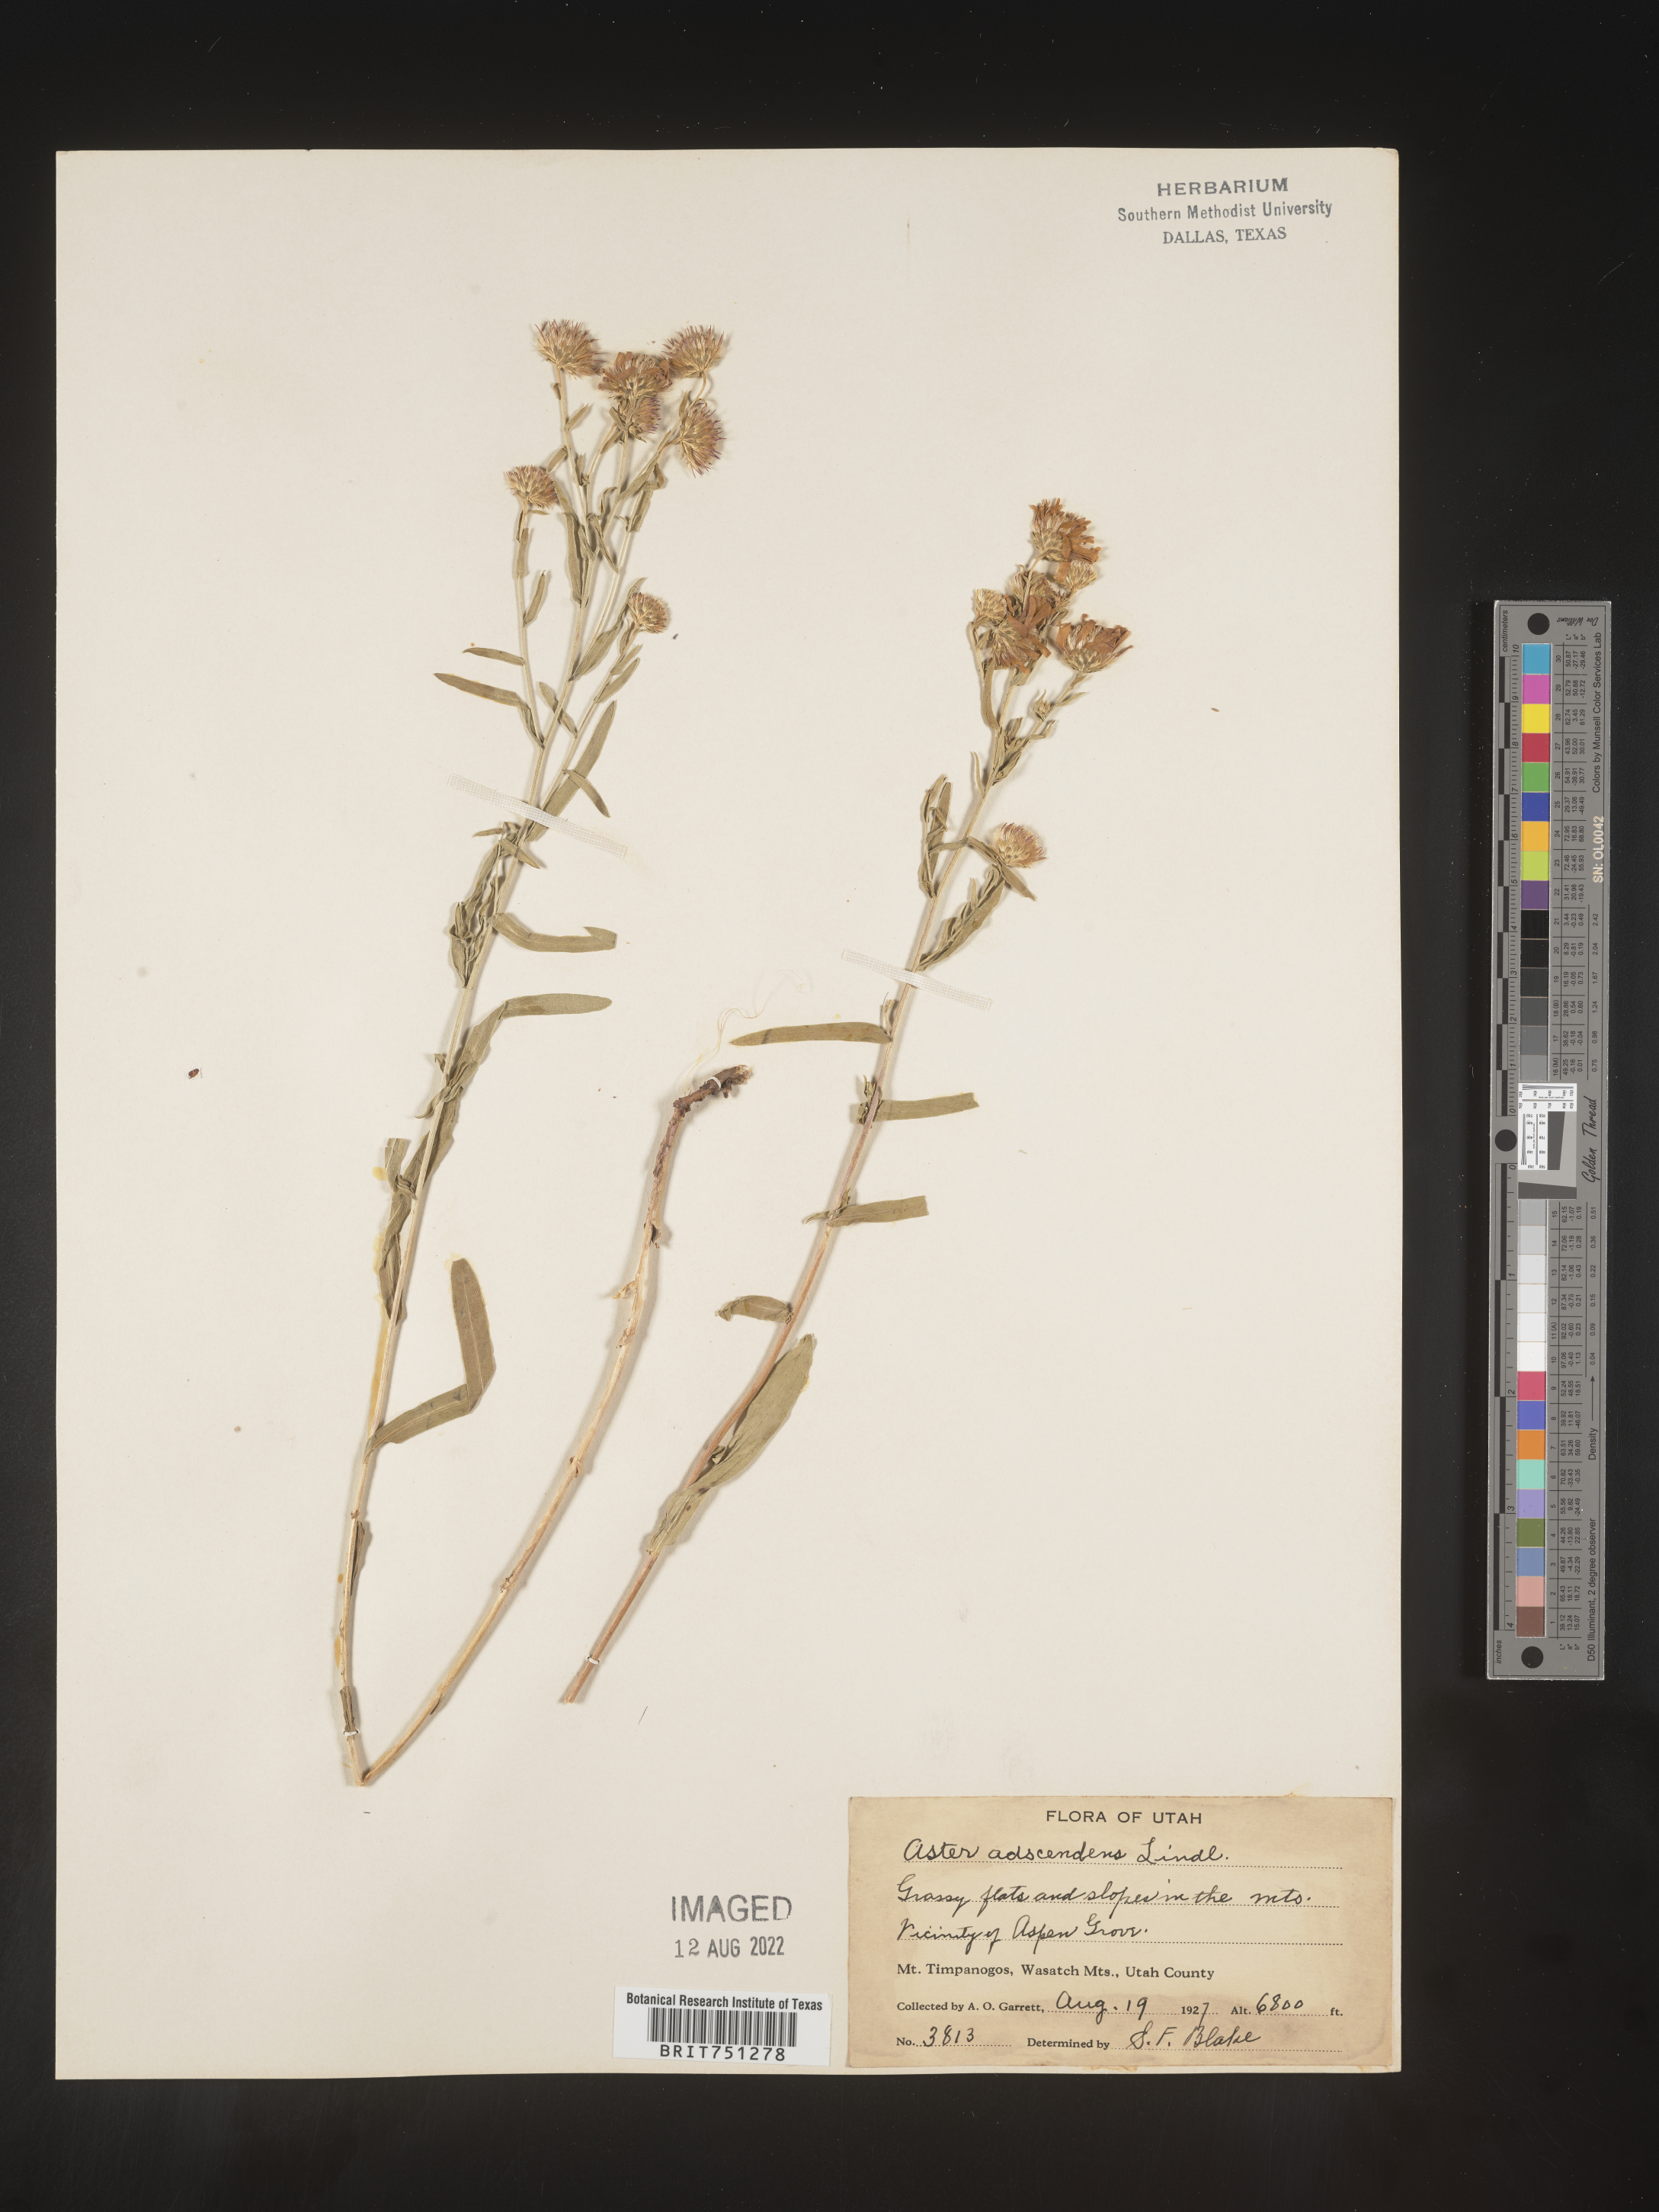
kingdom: Plantae
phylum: Tracheophyta
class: Magnoliopsida
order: Asterales
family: Asteraceae
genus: Symphyotrichum
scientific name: Symphyotrichum ascendens
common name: Intermountain aster
